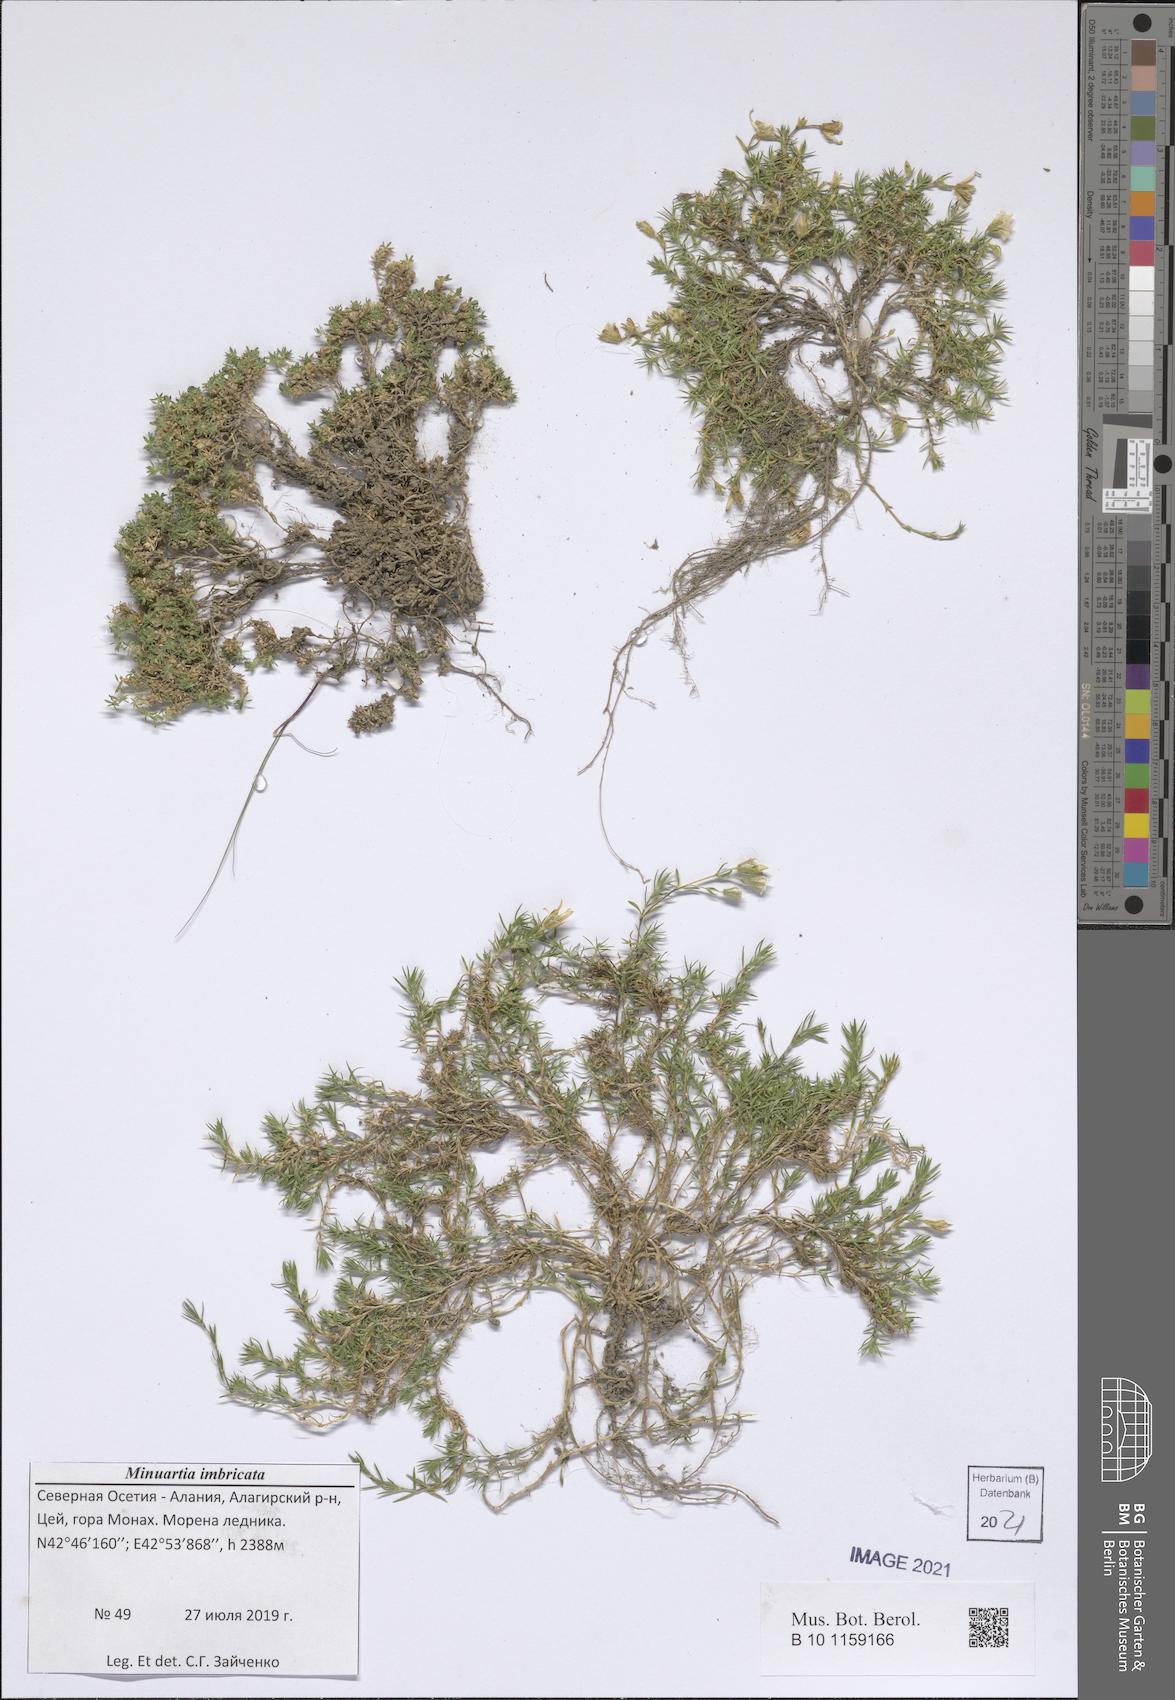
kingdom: Plantae
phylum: Tracheophyta
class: Magnoliopsida
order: Caryophyllales
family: Caryophyllaceae
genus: Pseudocherleria
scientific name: Pseudocherleria imbricata
